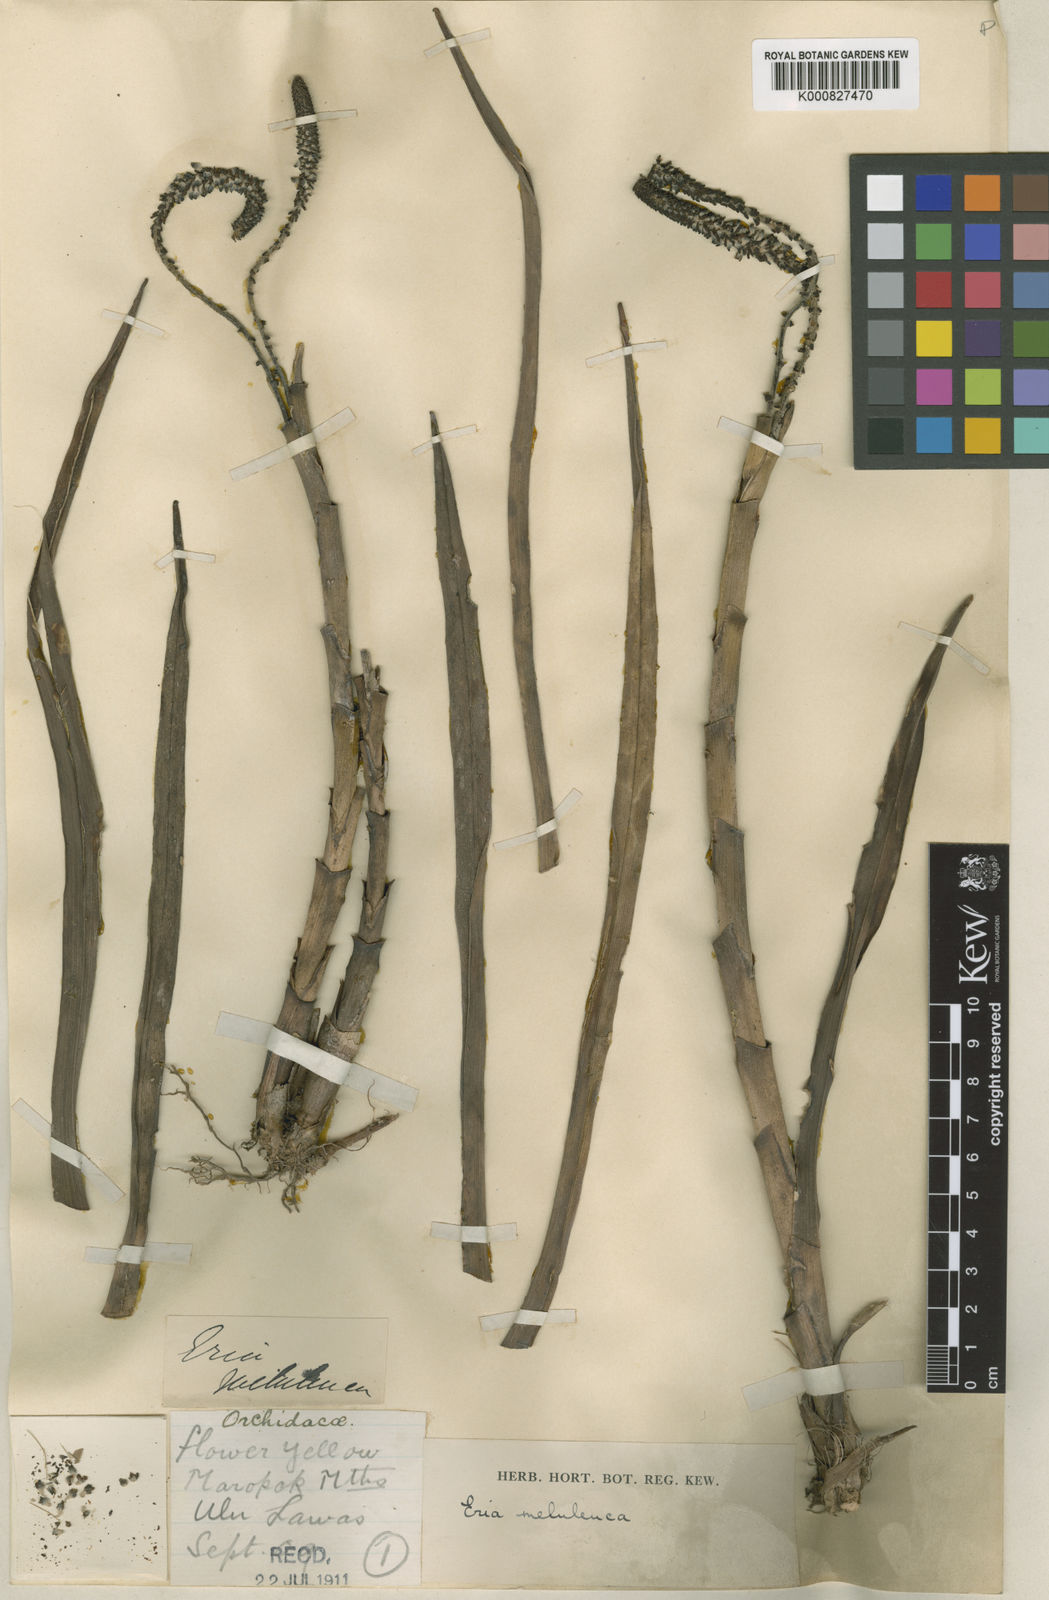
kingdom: Plantae
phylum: Tracheophyta
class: Liliopsida
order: Asparagales
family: Orchidaceae
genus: Mycaranthes
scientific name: Mycaranthes melaleuca
